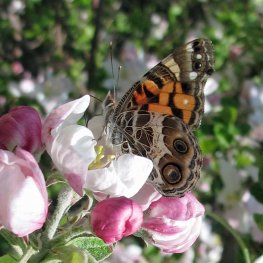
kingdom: Animalia
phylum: Arthropoda
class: Insecta
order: Lepidoptera
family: Nymphalidae
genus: Vanessa
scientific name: Vanessa virginiensis
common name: American Lady
